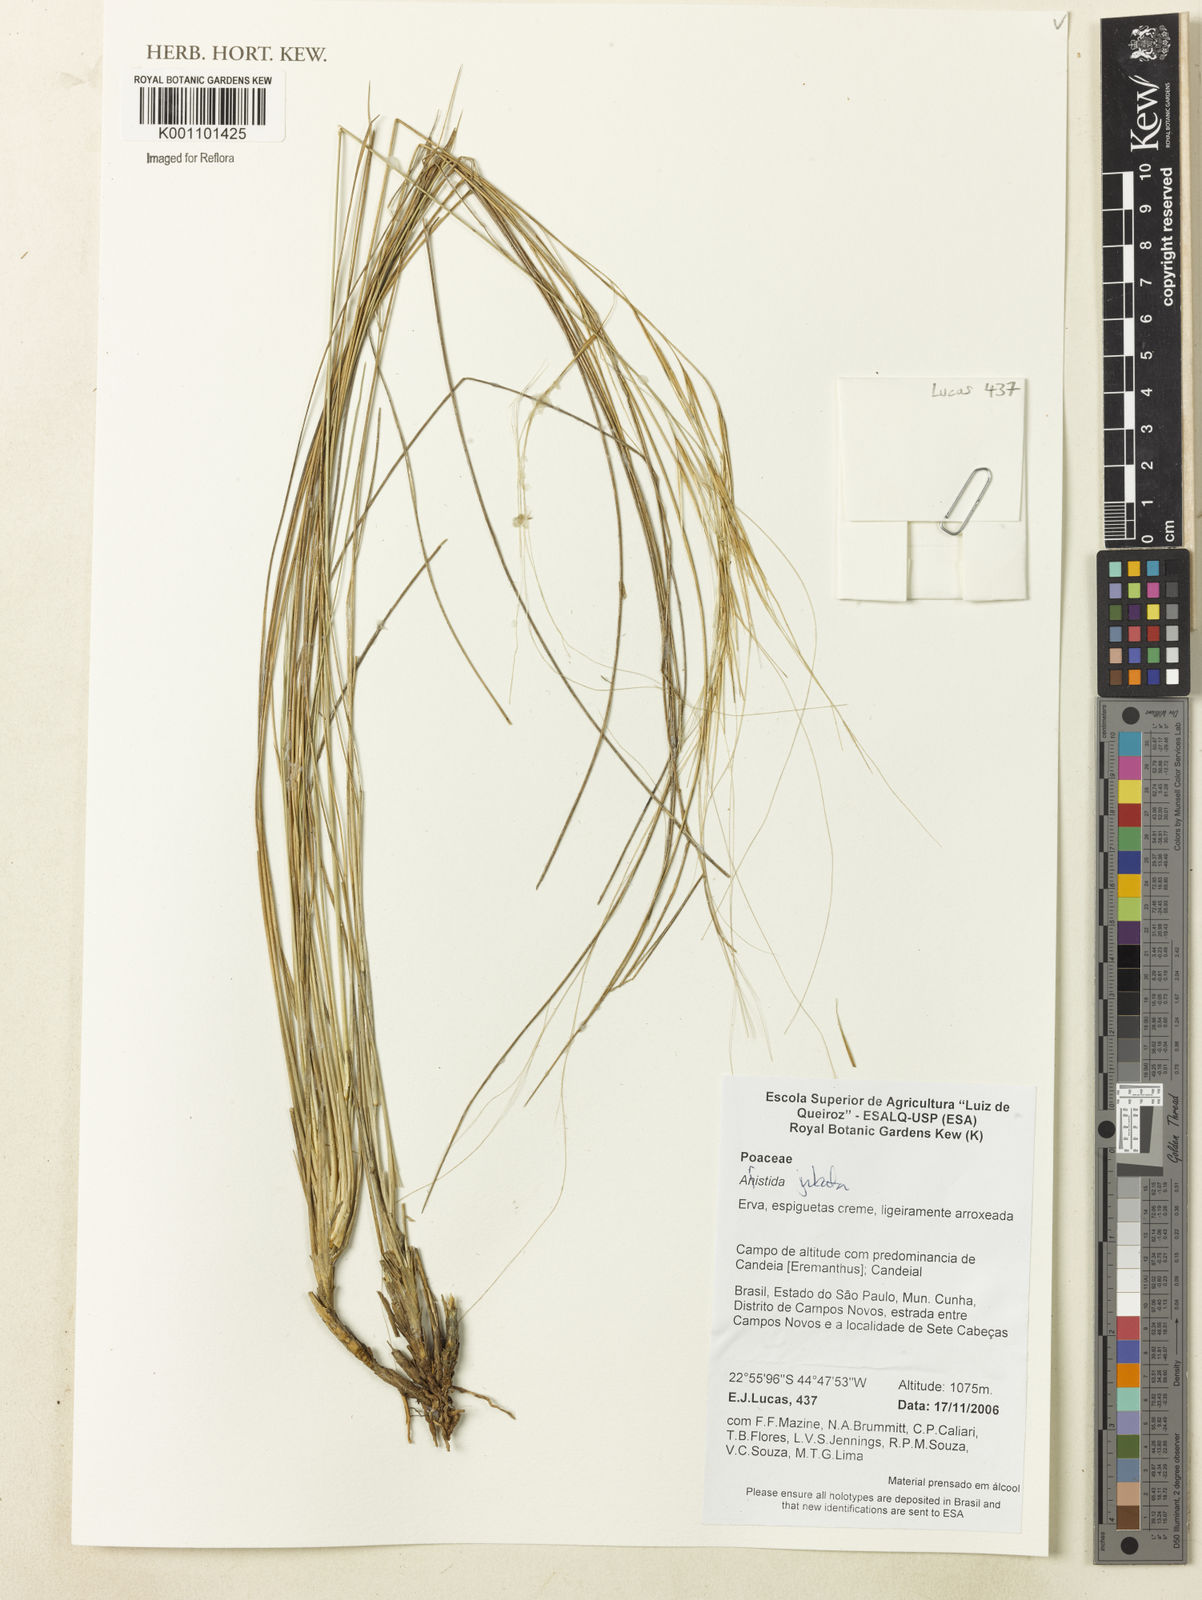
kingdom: Plantae
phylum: Tracheophyta
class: Liliopsida
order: Poales
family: Poaceae
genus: Aristida
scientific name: Aristida jubata
